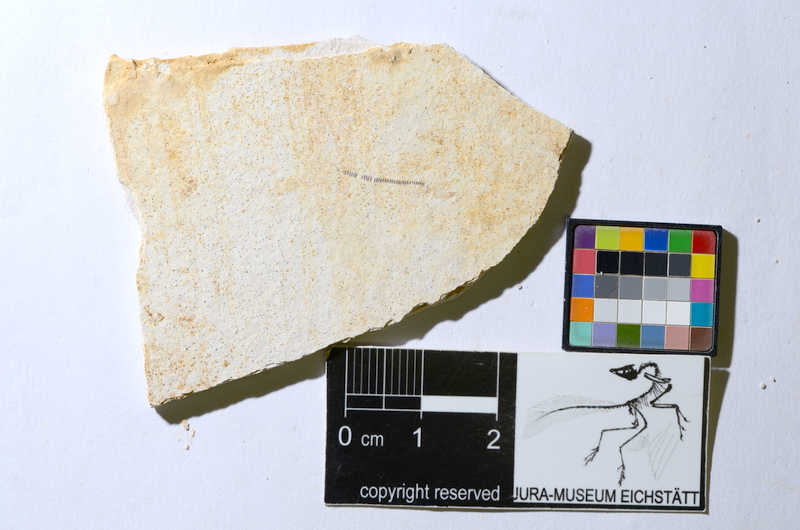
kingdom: Animalia
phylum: Chordata
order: Salmoniformes
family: Orthogonikleithridae
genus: Orthogonikleithrus
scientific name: Orthogonikleithrus hoelli
